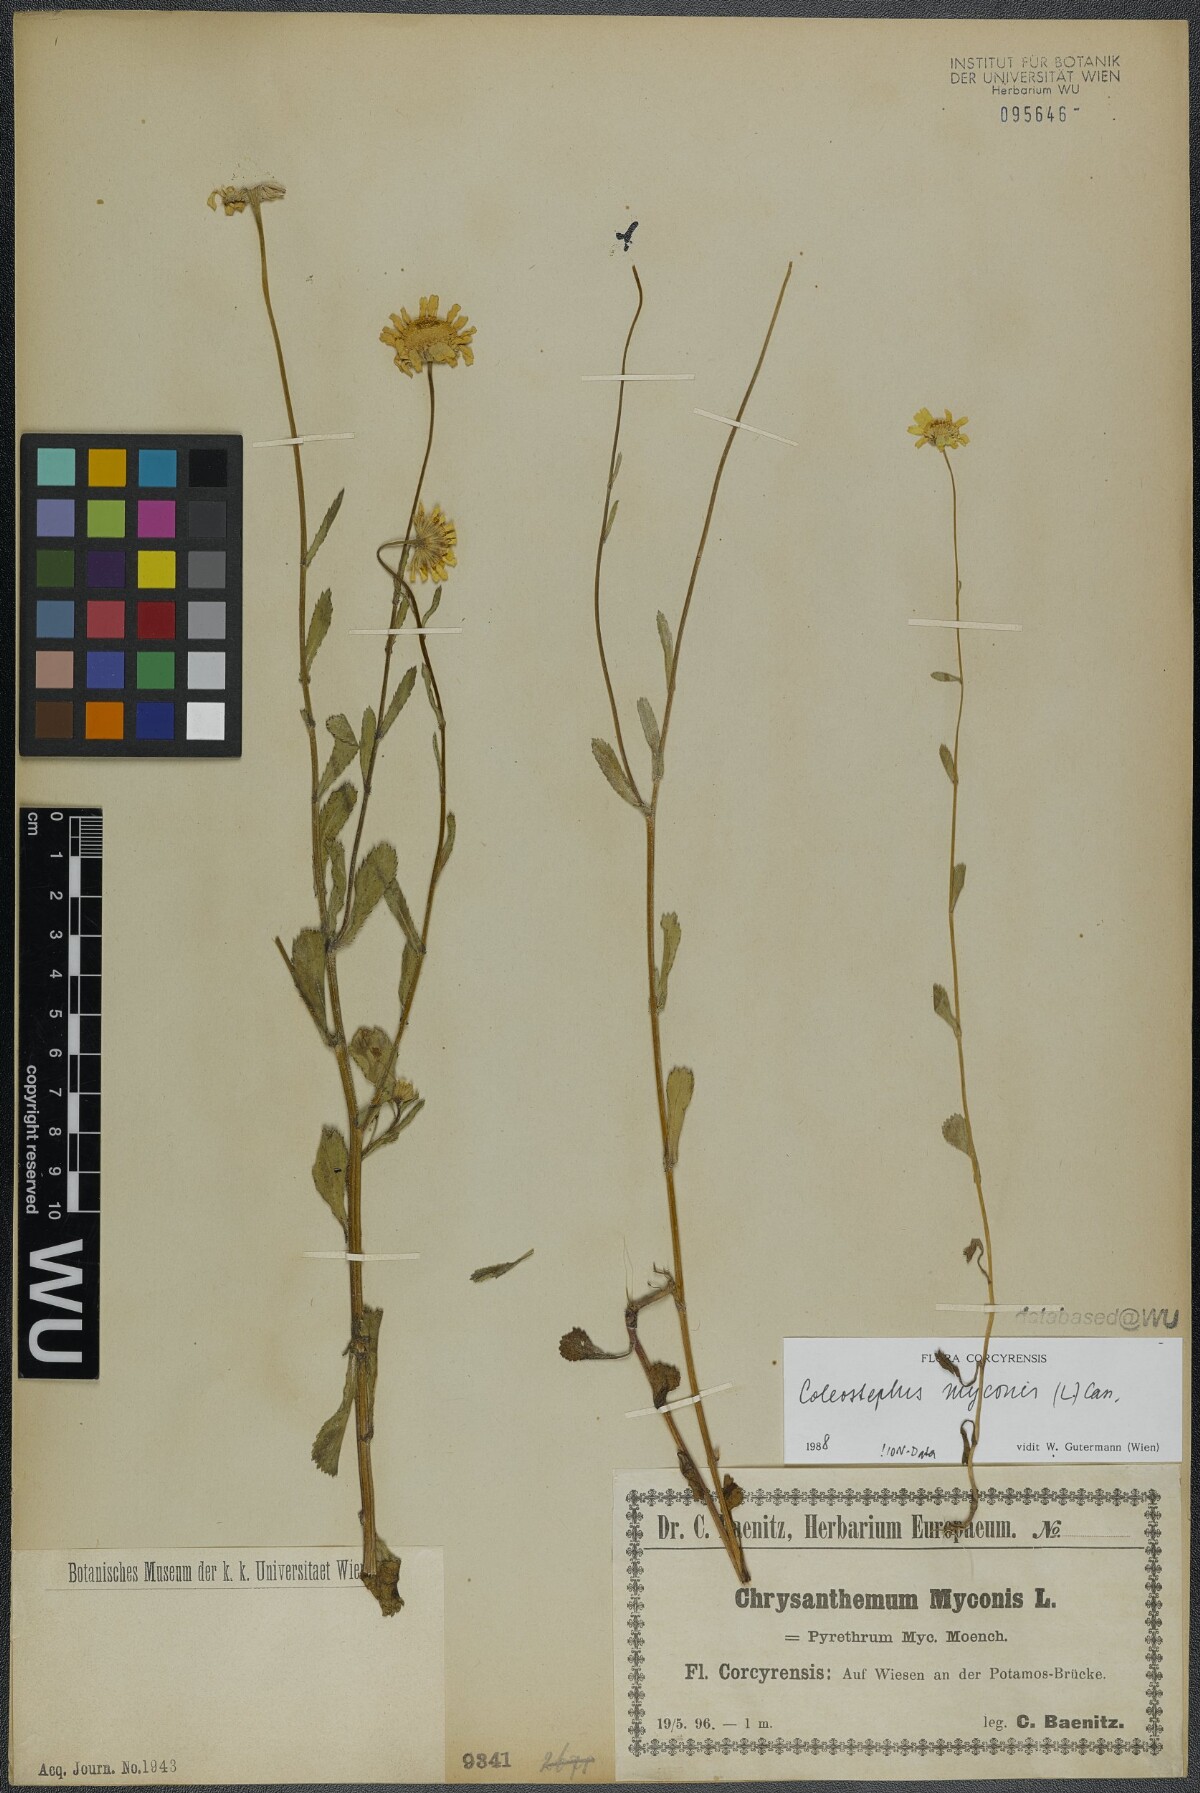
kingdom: Plantae
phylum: Tracheophyta
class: Magnoliopsida
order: Asterales
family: Asteraceae
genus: Coleostephus
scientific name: Coleostephus myconis
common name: Mediterranean marigold
